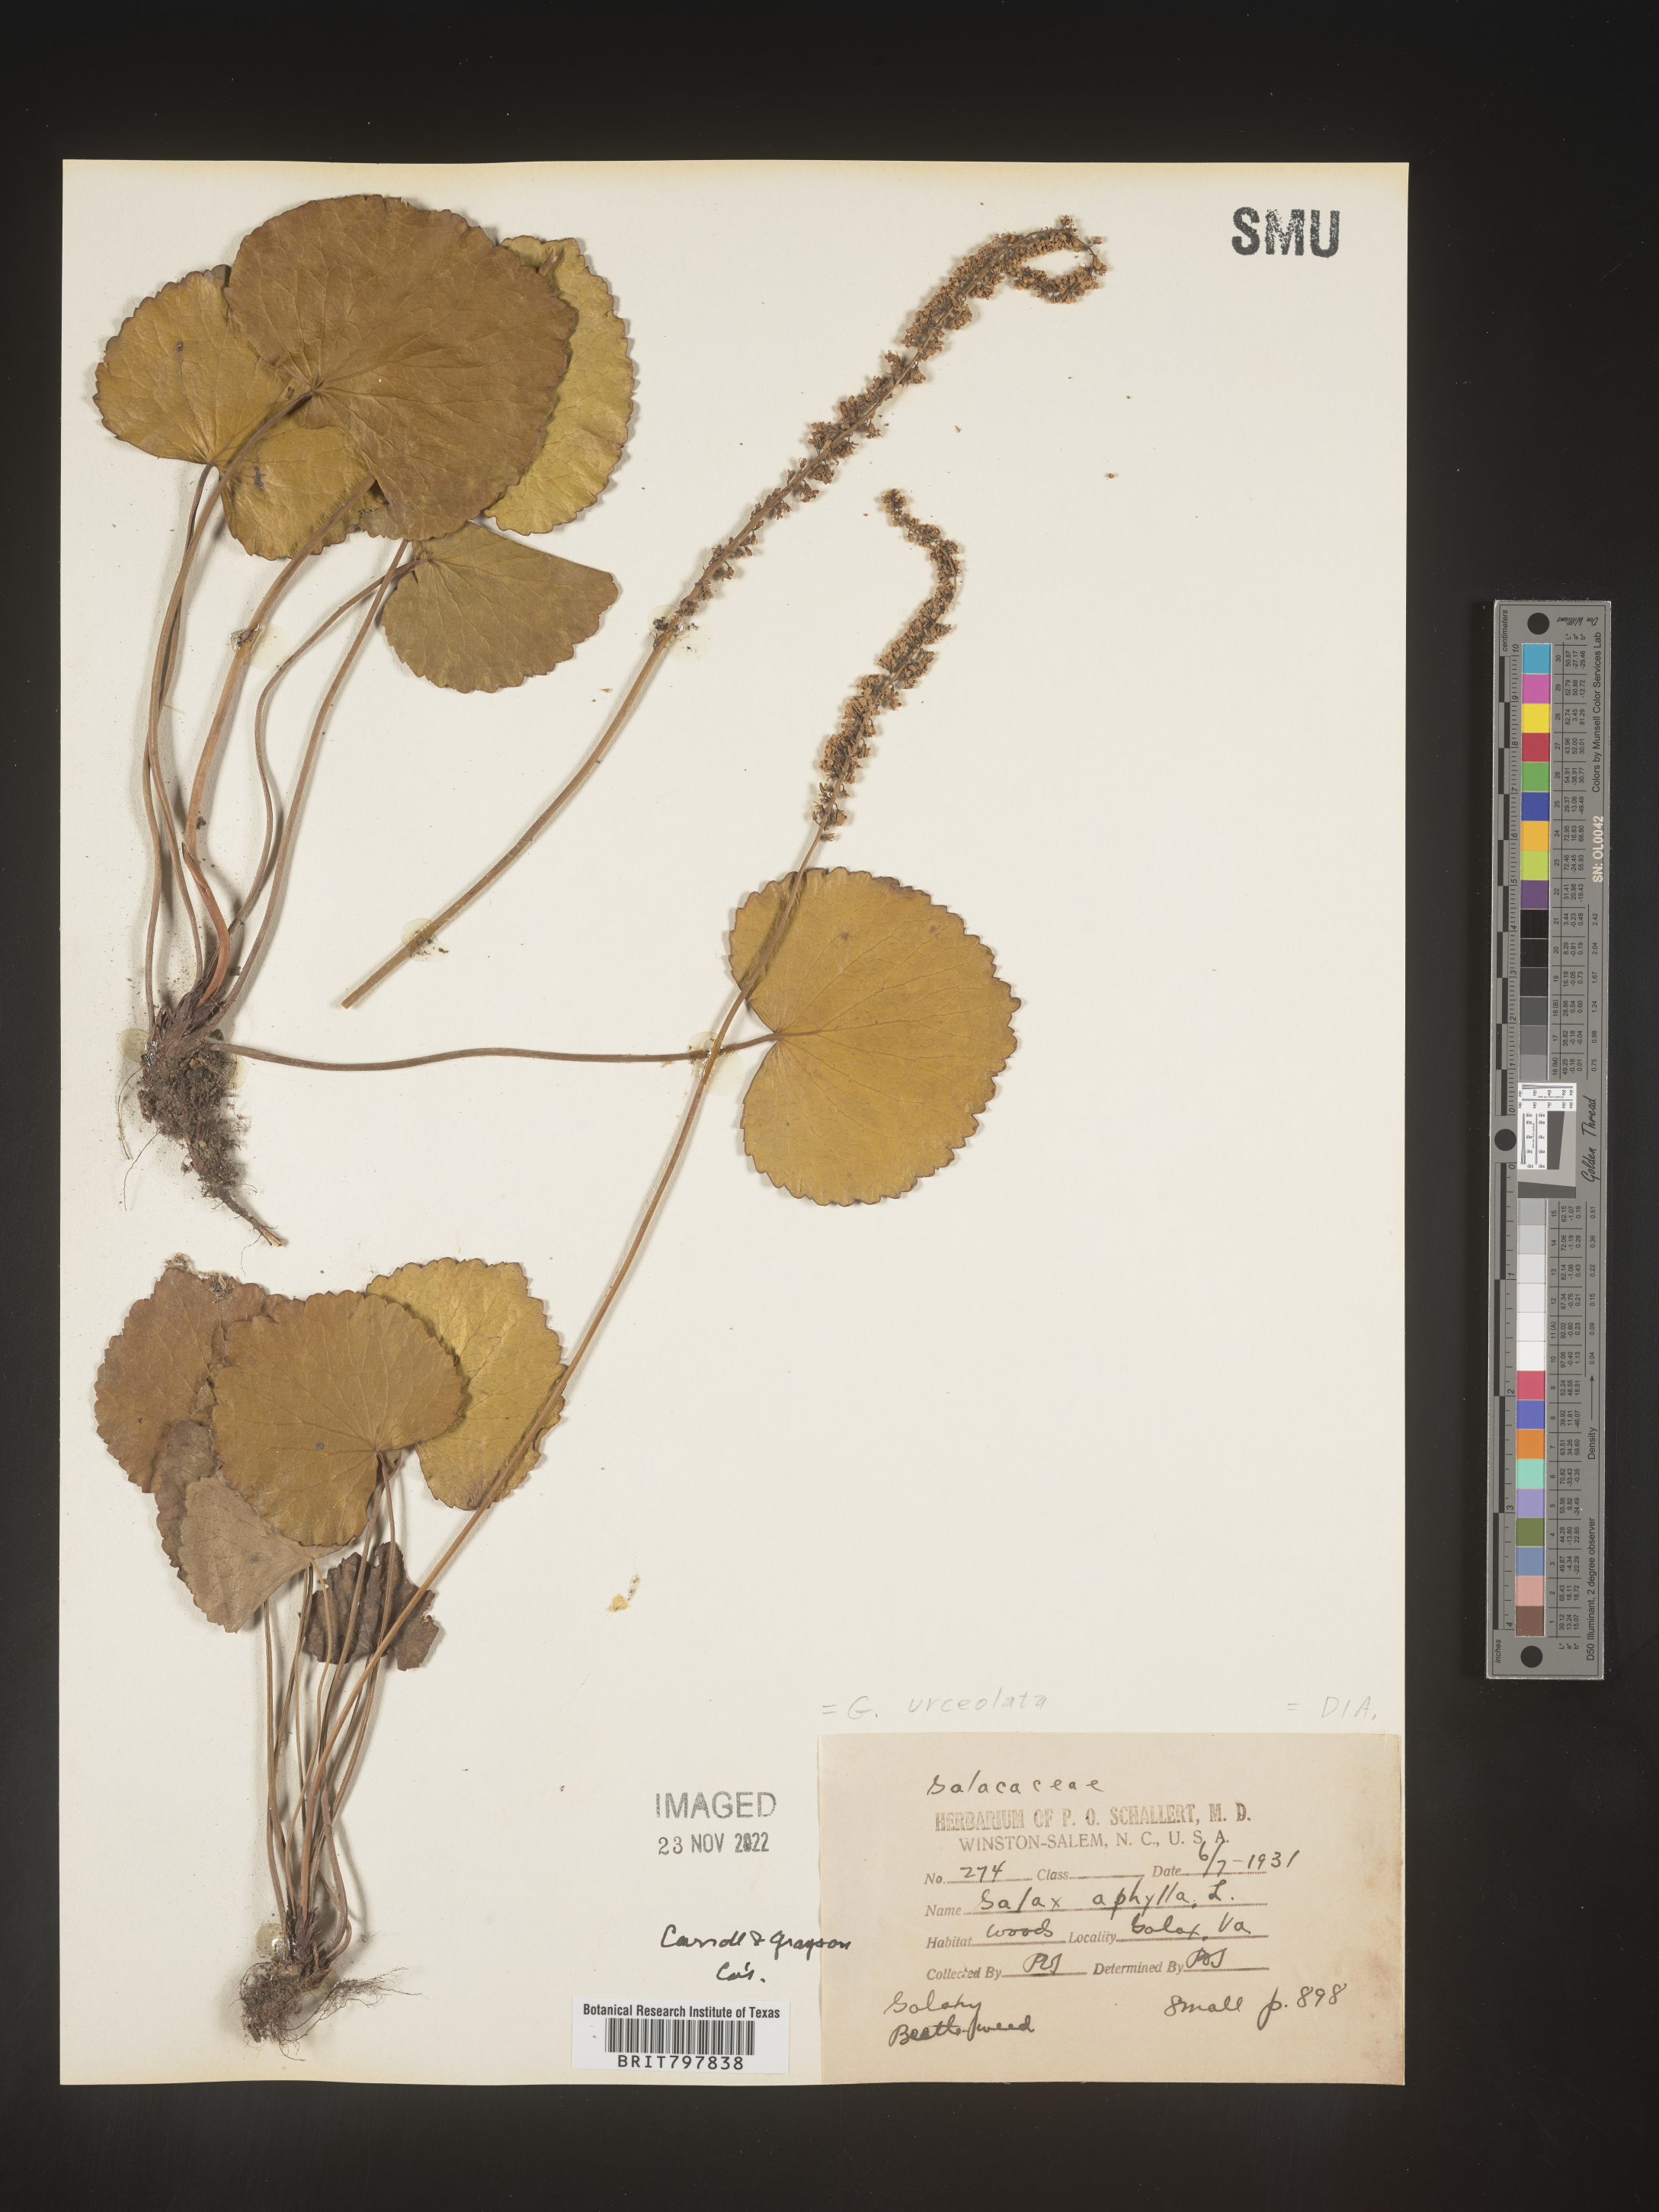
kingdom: Plantae
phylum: Tracheophyta
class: Magnoliopsida
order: Ericales
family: Diapensiaceae
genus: Galax
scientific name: Galax
